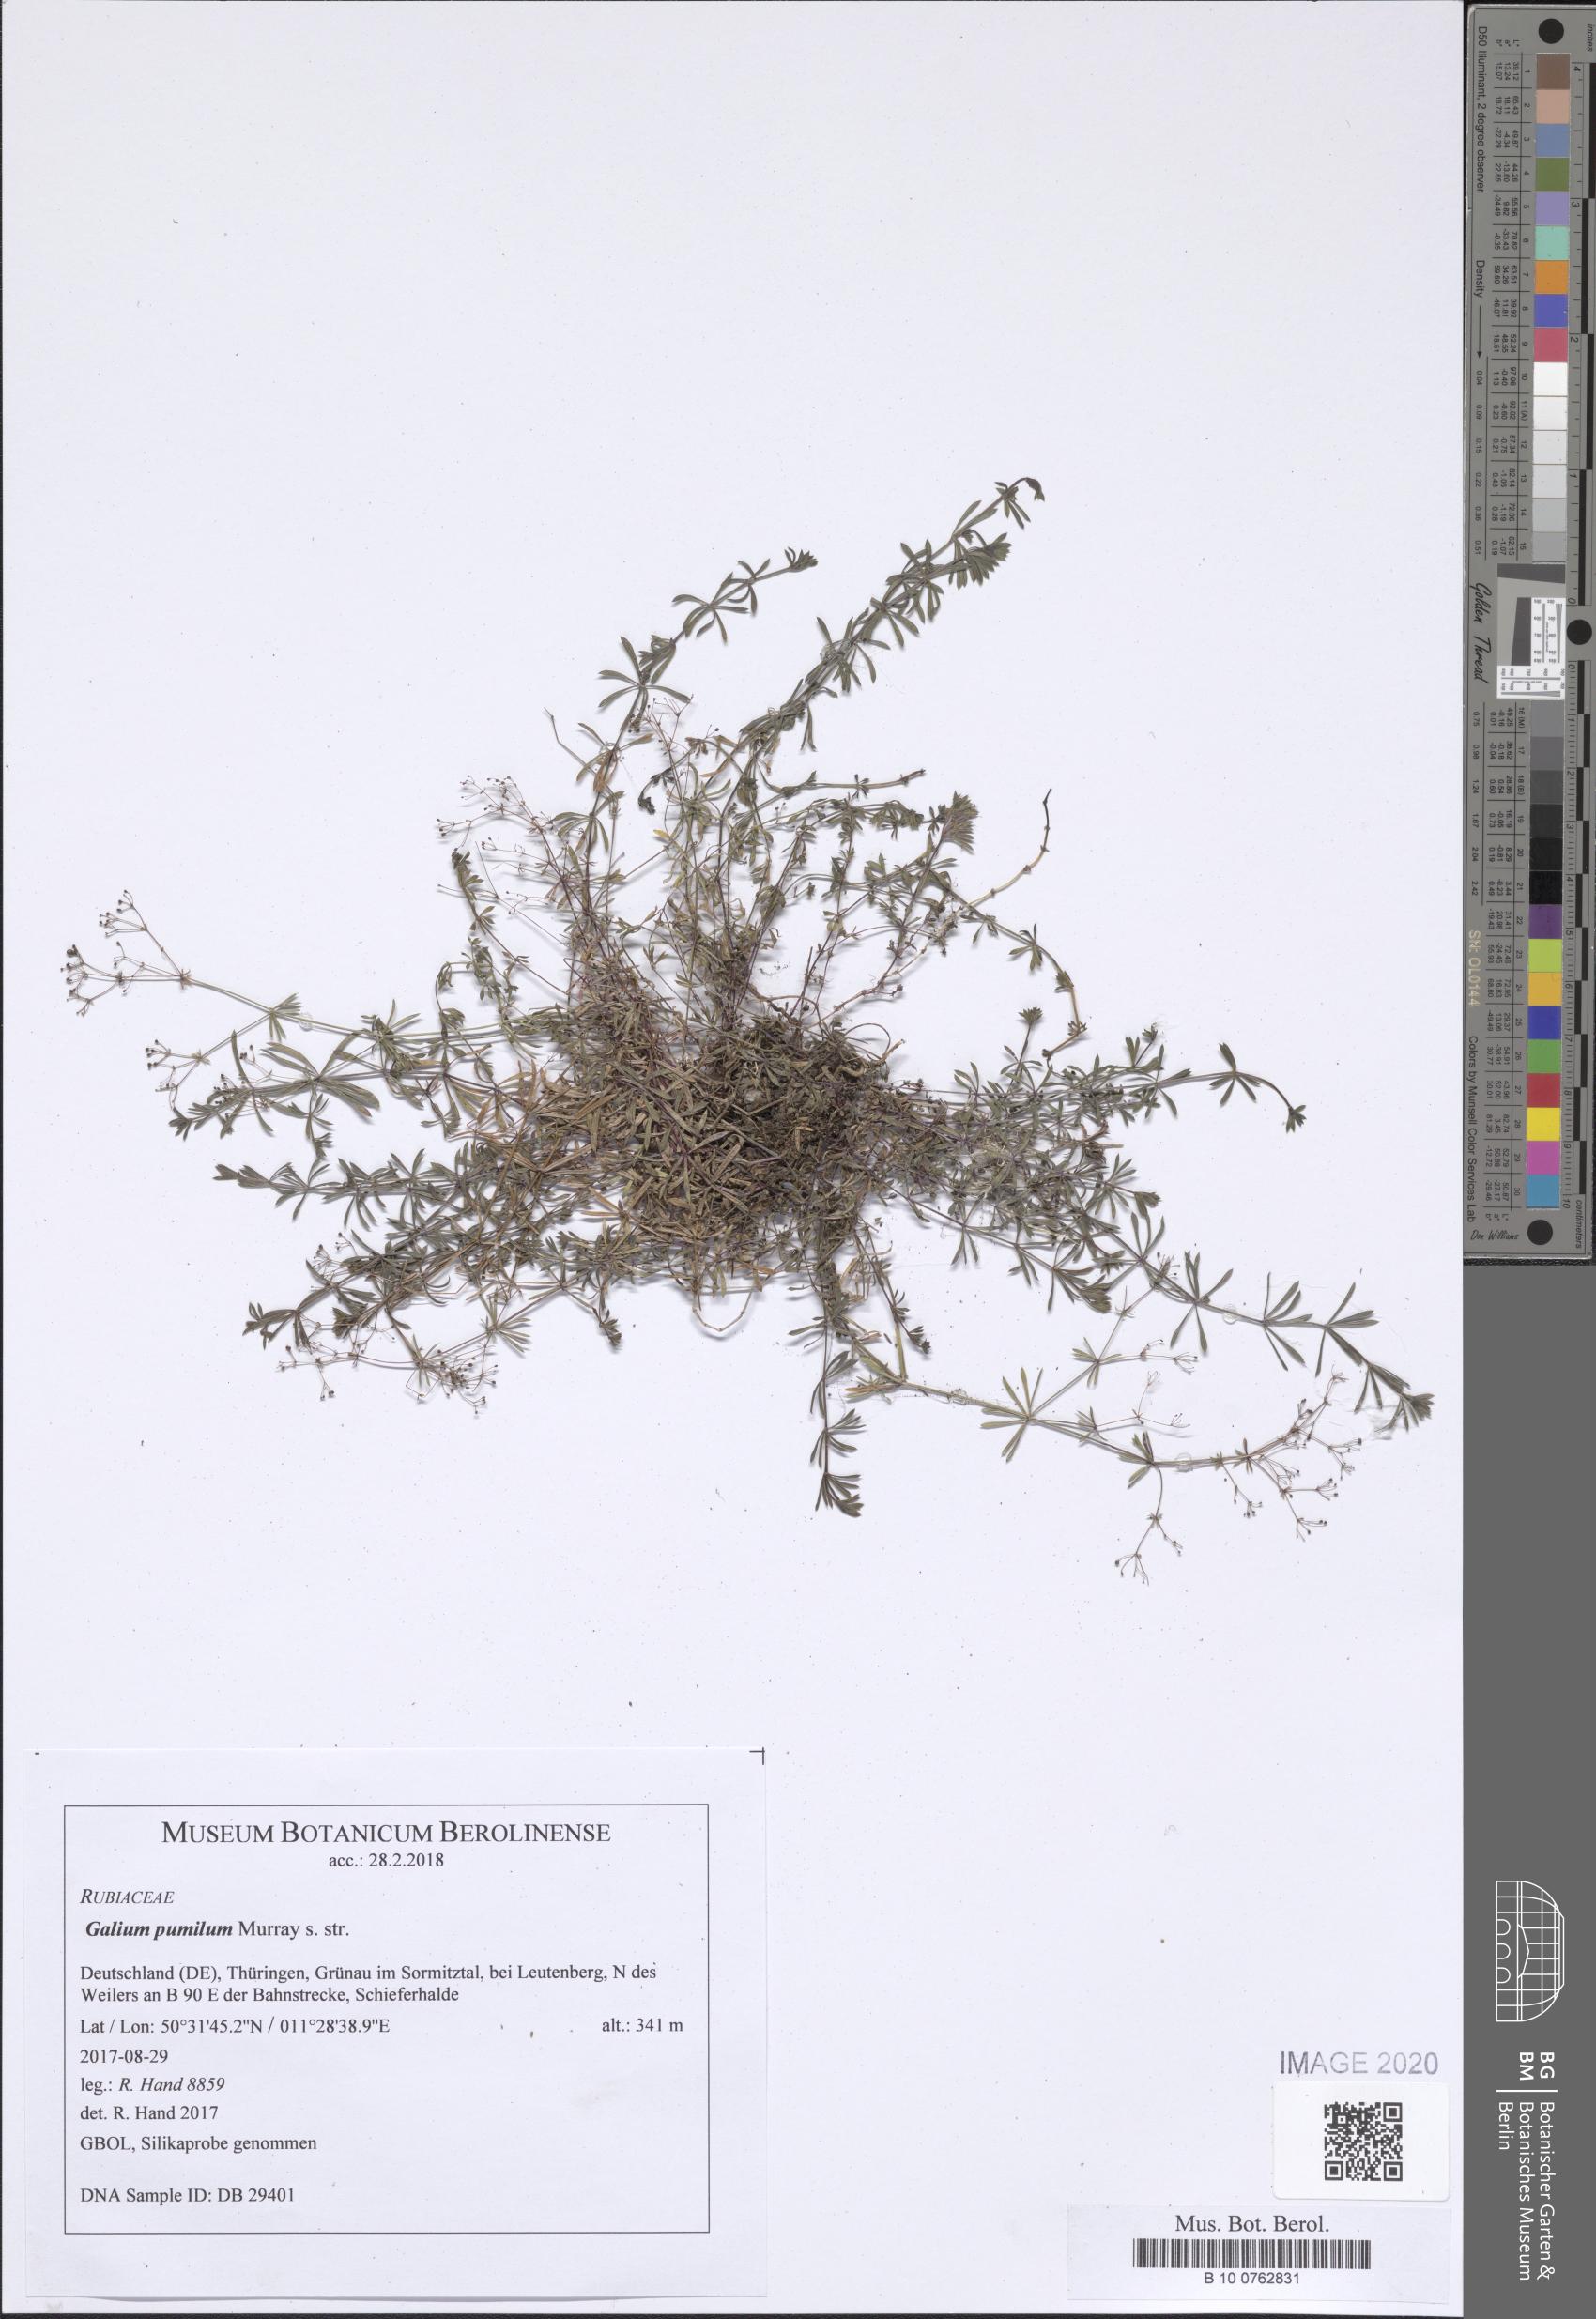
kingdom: Plantae
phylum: Tracheophyta
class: Magnoliopsida
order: Gentianales
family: Rubiaceae
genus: Galium
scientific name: Galium pumilum
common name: Slender bedstraw
